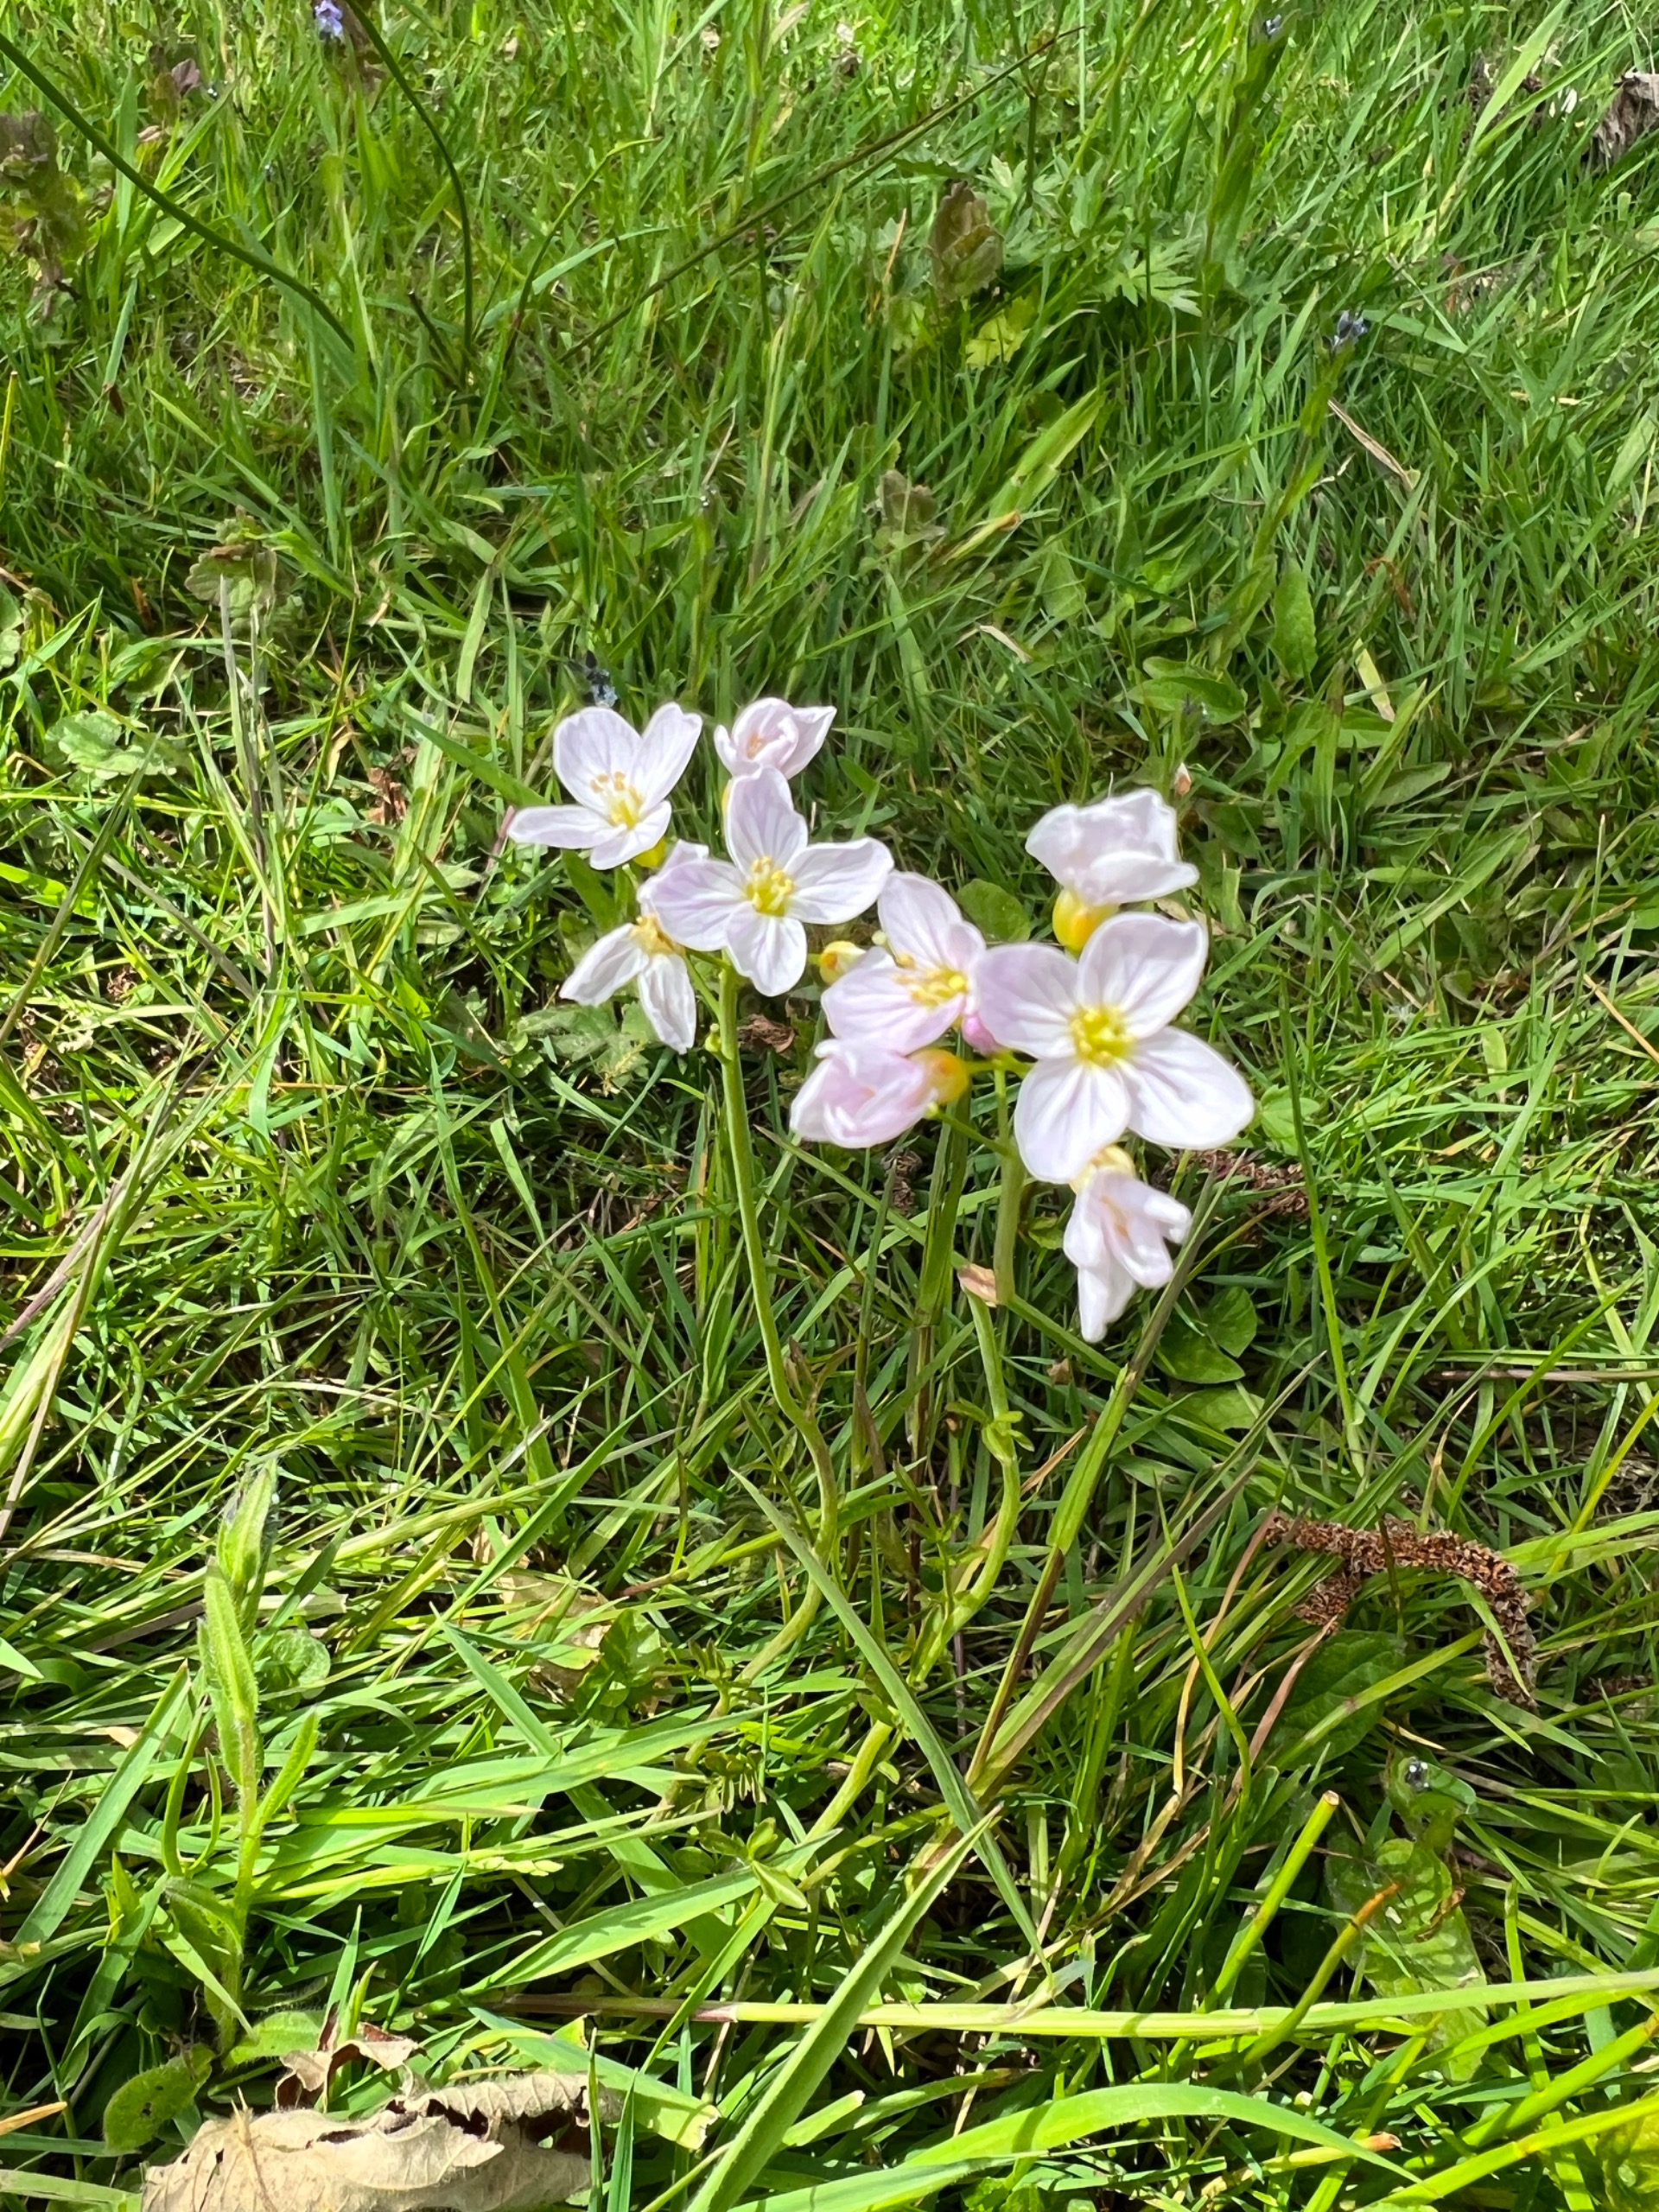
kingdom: Plantae
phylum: Tracheophyta
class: Magnoliopsida
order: Brassicales
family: Brassicaceae
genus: Cardamine
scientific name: Cardamine pratensis
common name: Engkarse
